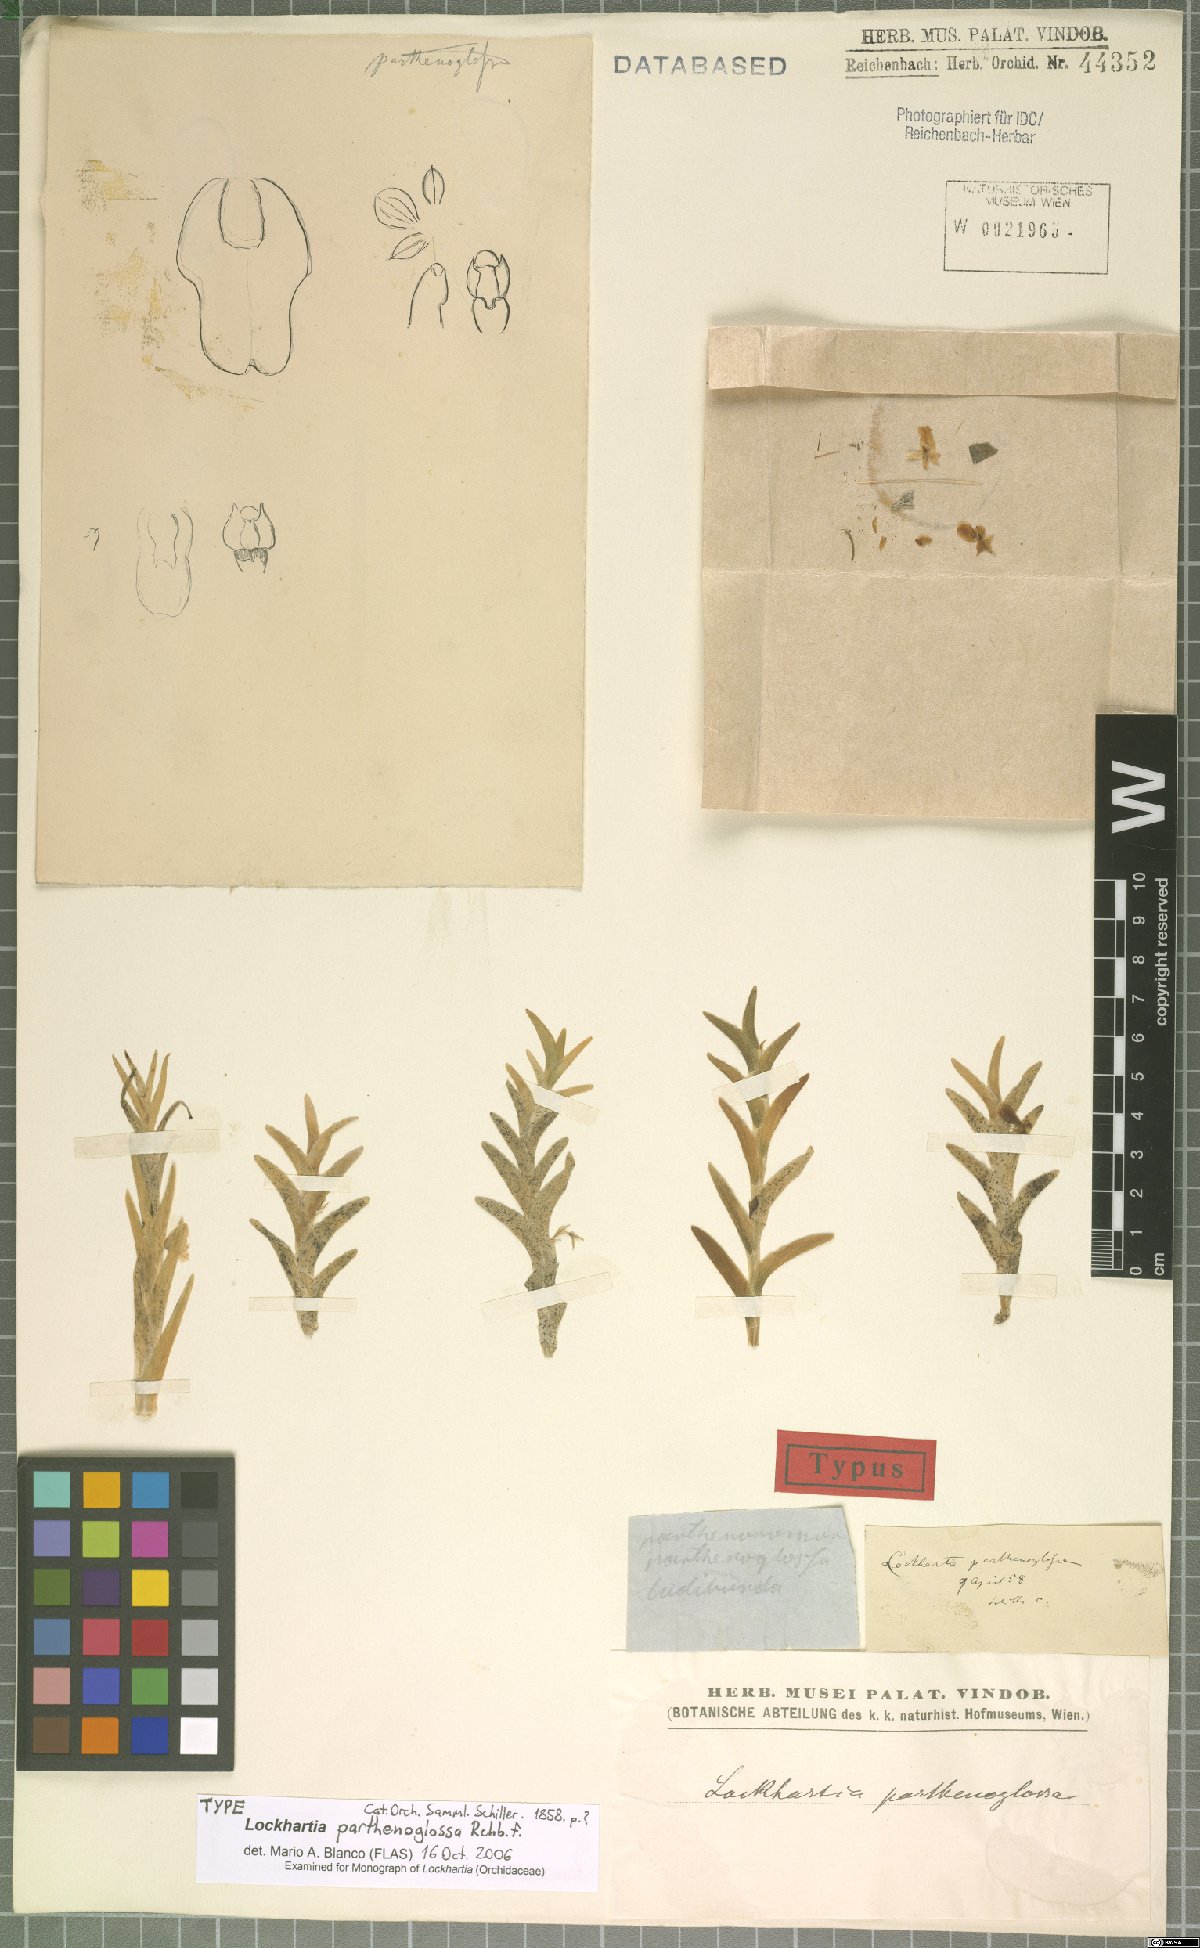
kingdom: Plantae
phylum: Tracheophyta
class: Liliopsida
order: Asparagales
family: Orchidaceae
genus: Lockhartia
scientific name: Lockhartia parthenoglossa
